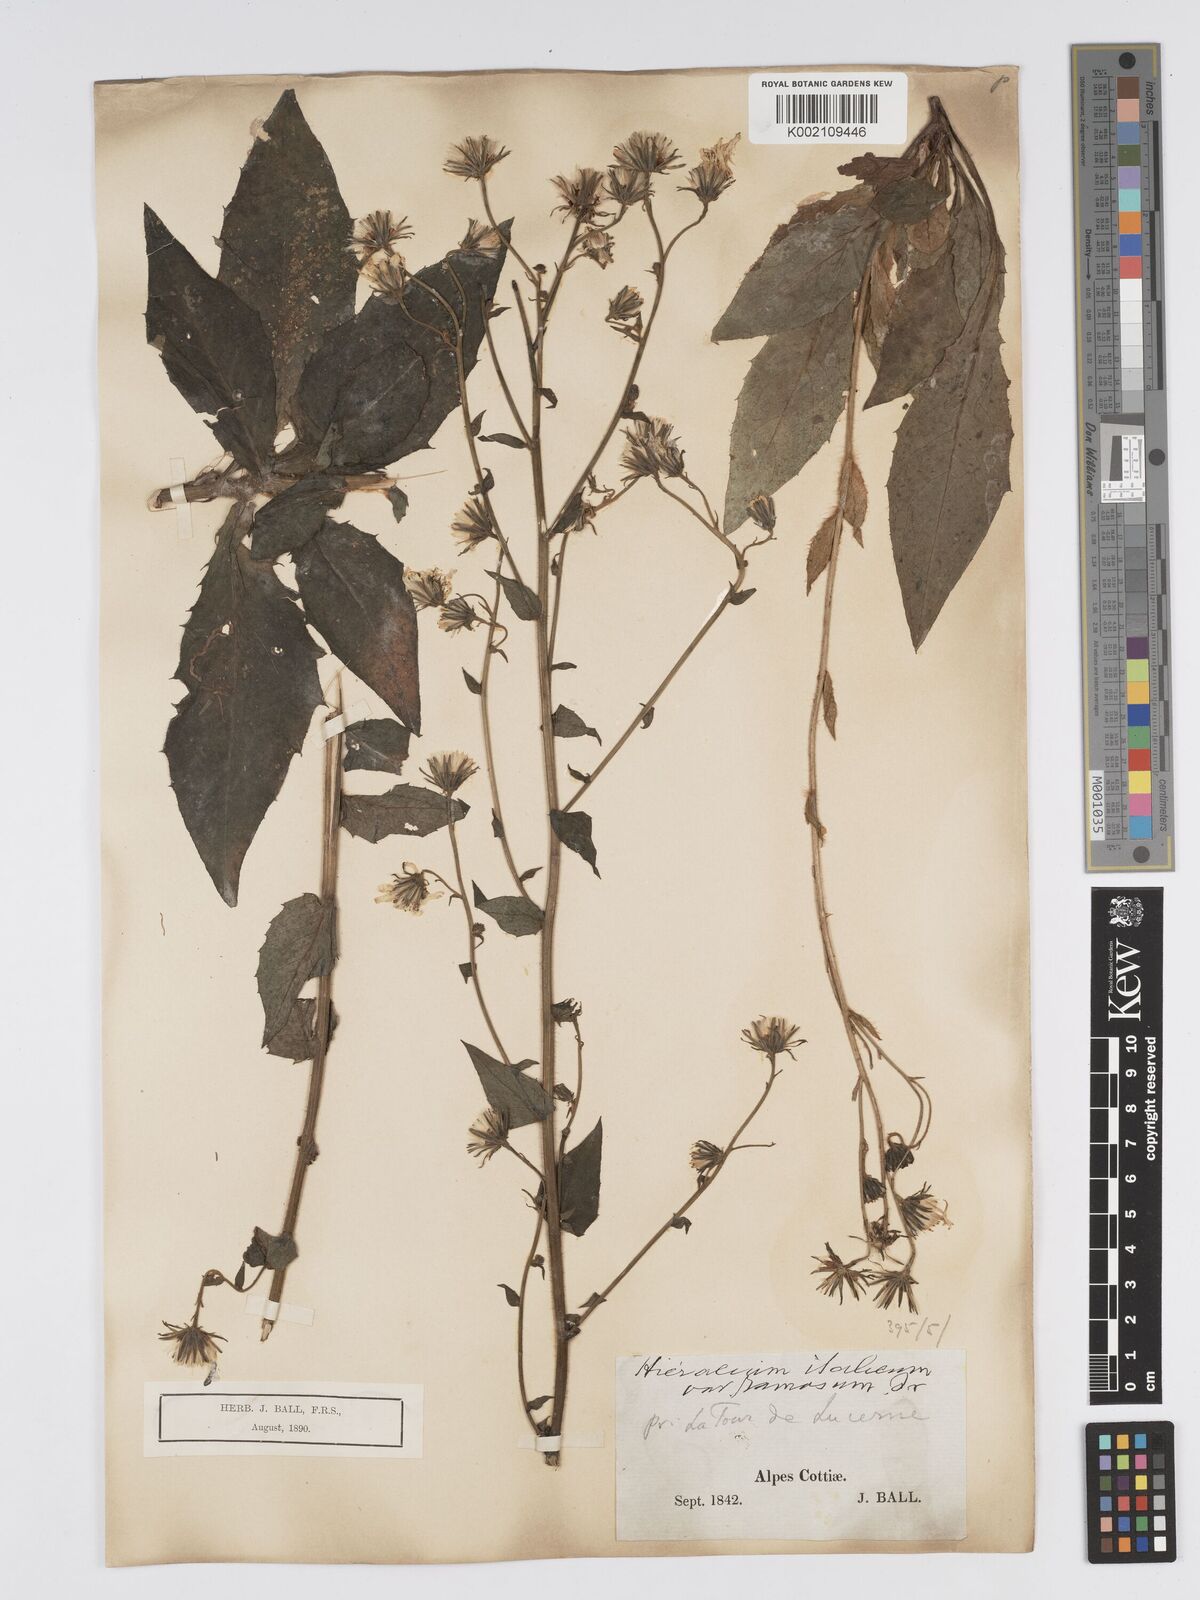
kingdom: Plantae
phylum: Tracheophyta
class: Magnoliopsida
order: Asterales
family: Asteraceae
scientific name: Asteraceae
